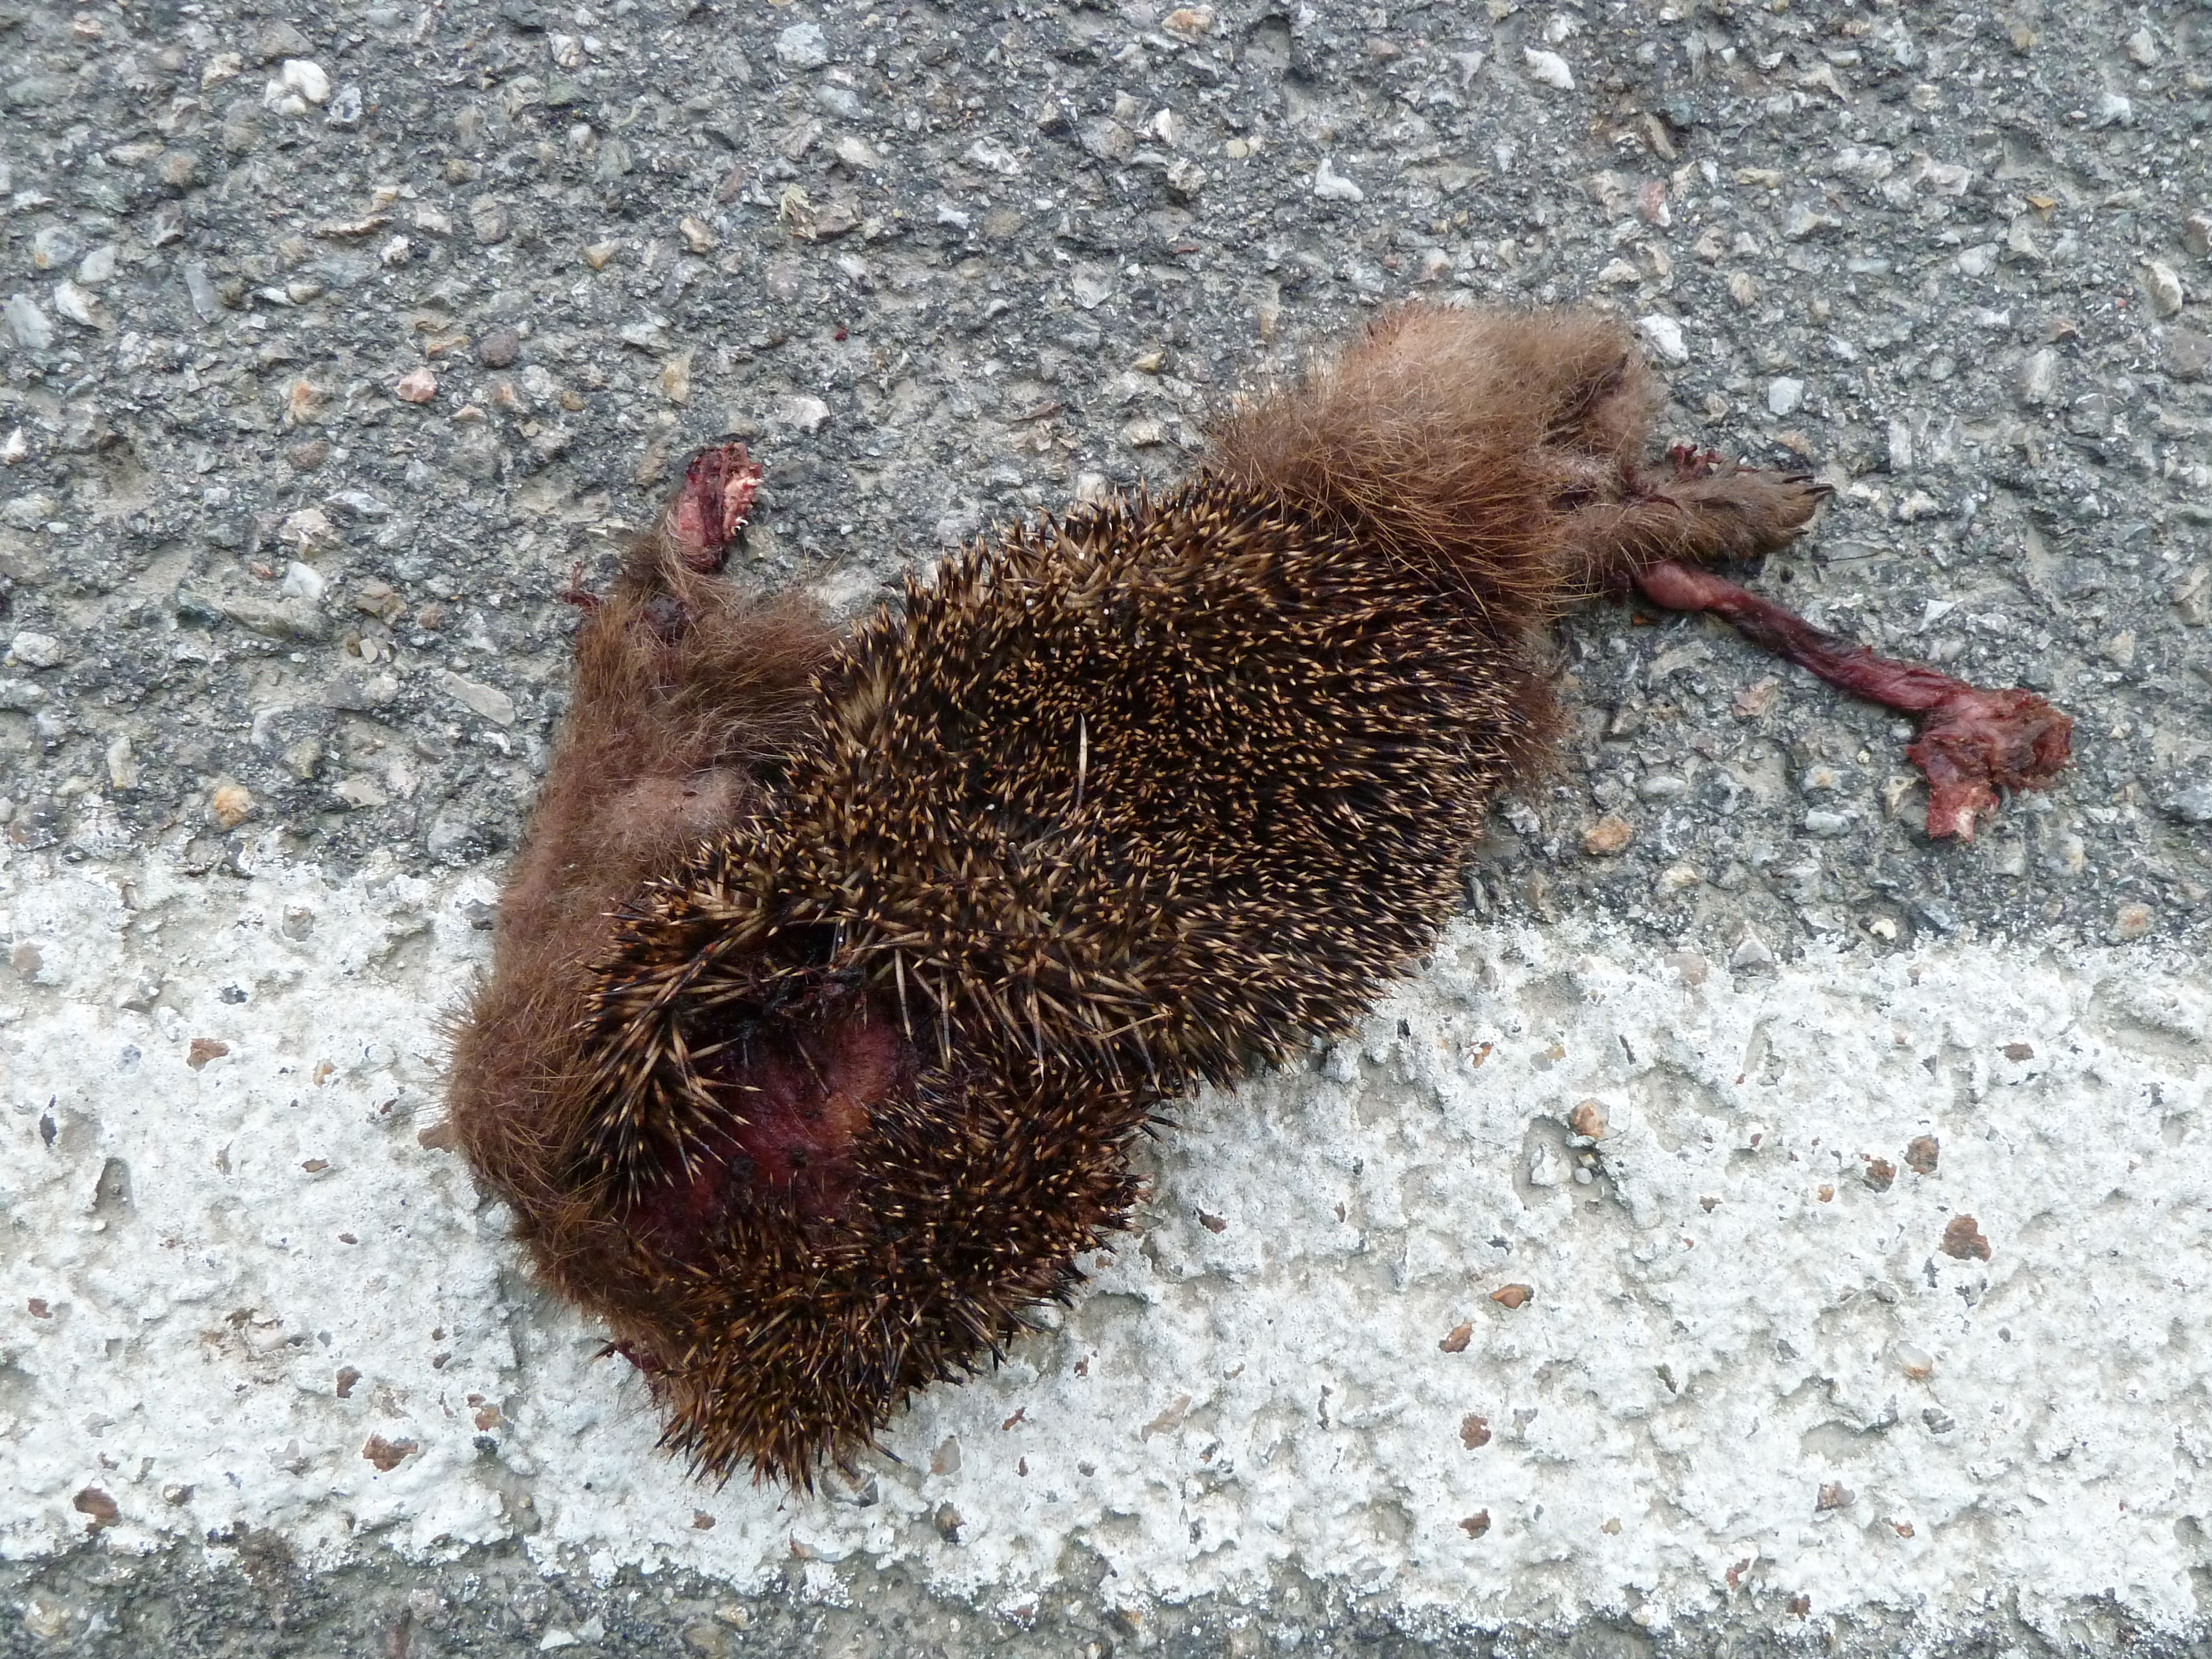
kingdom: Animalia
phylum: Chordata
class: Mammalia
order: Erinaceomorpha
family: Erinaceidae
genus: Erinaceus
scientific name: Erinaceus
